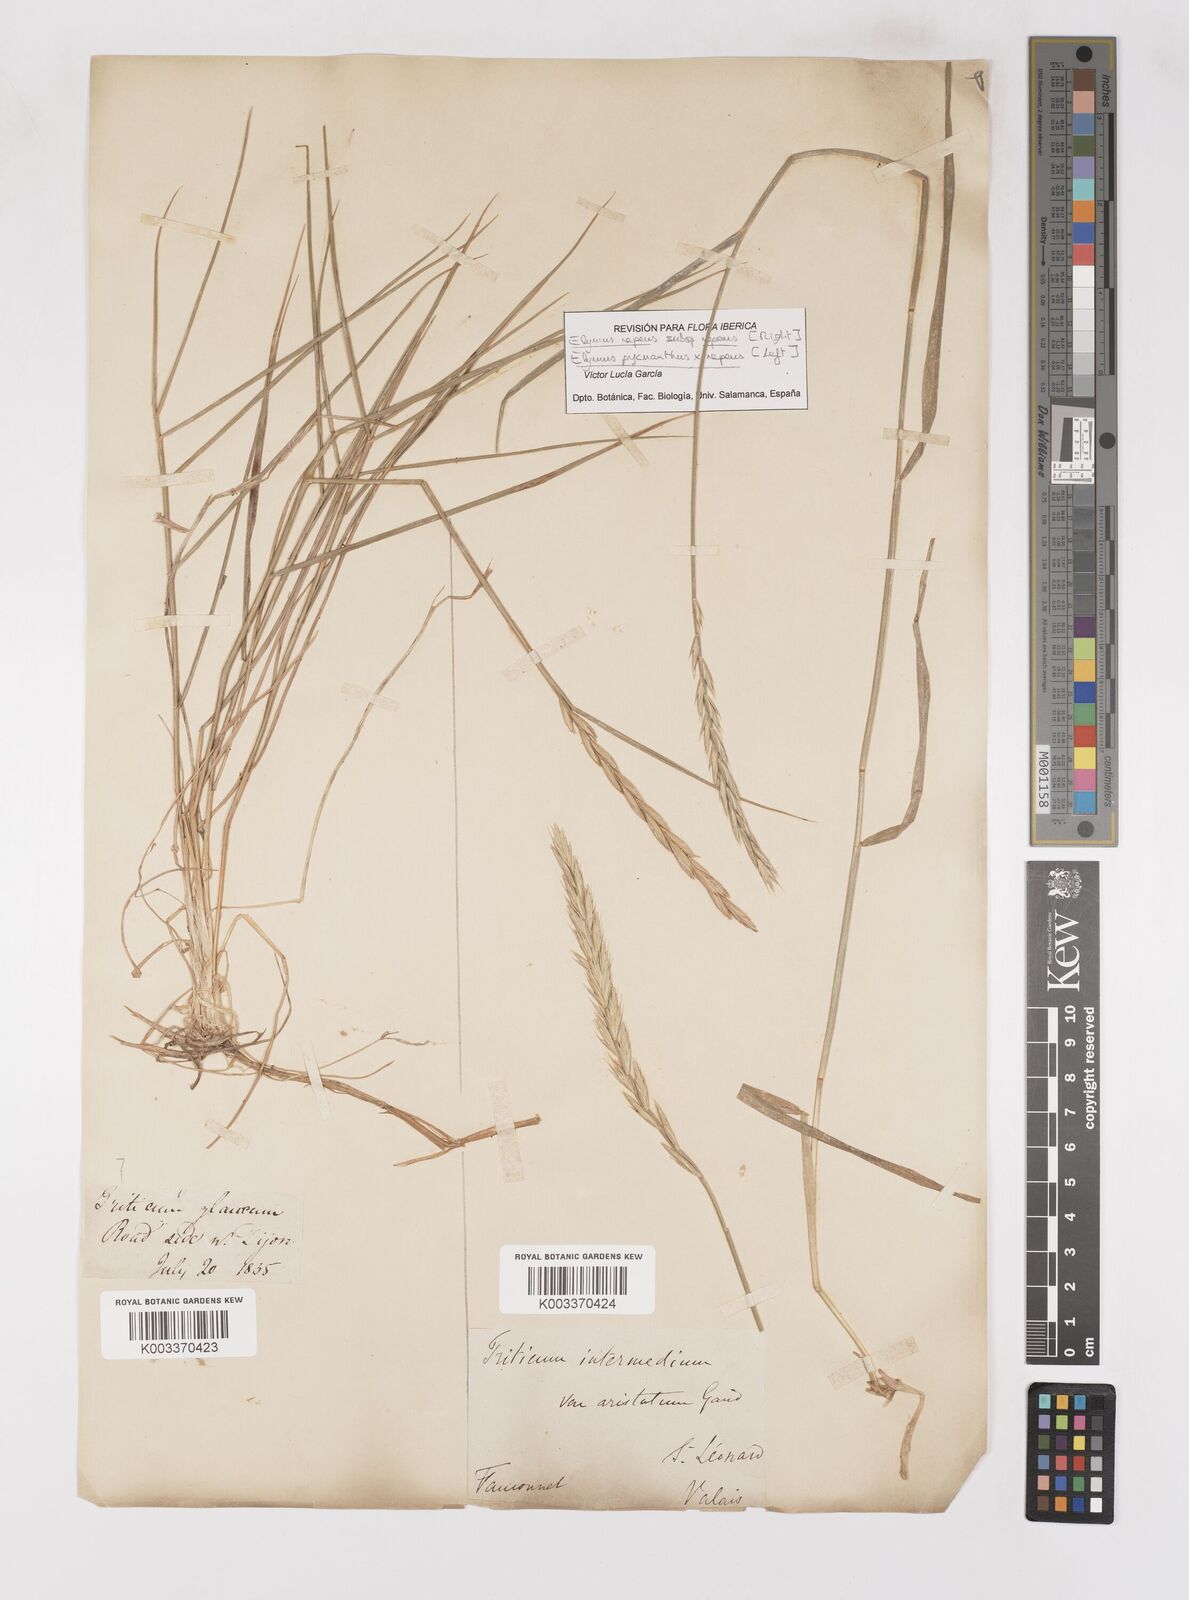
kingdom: Plantae
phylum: Tracheophyta
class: Liliopsida
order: Poales
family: Poaceae
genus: Elymus
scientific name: Elymus oliveri
